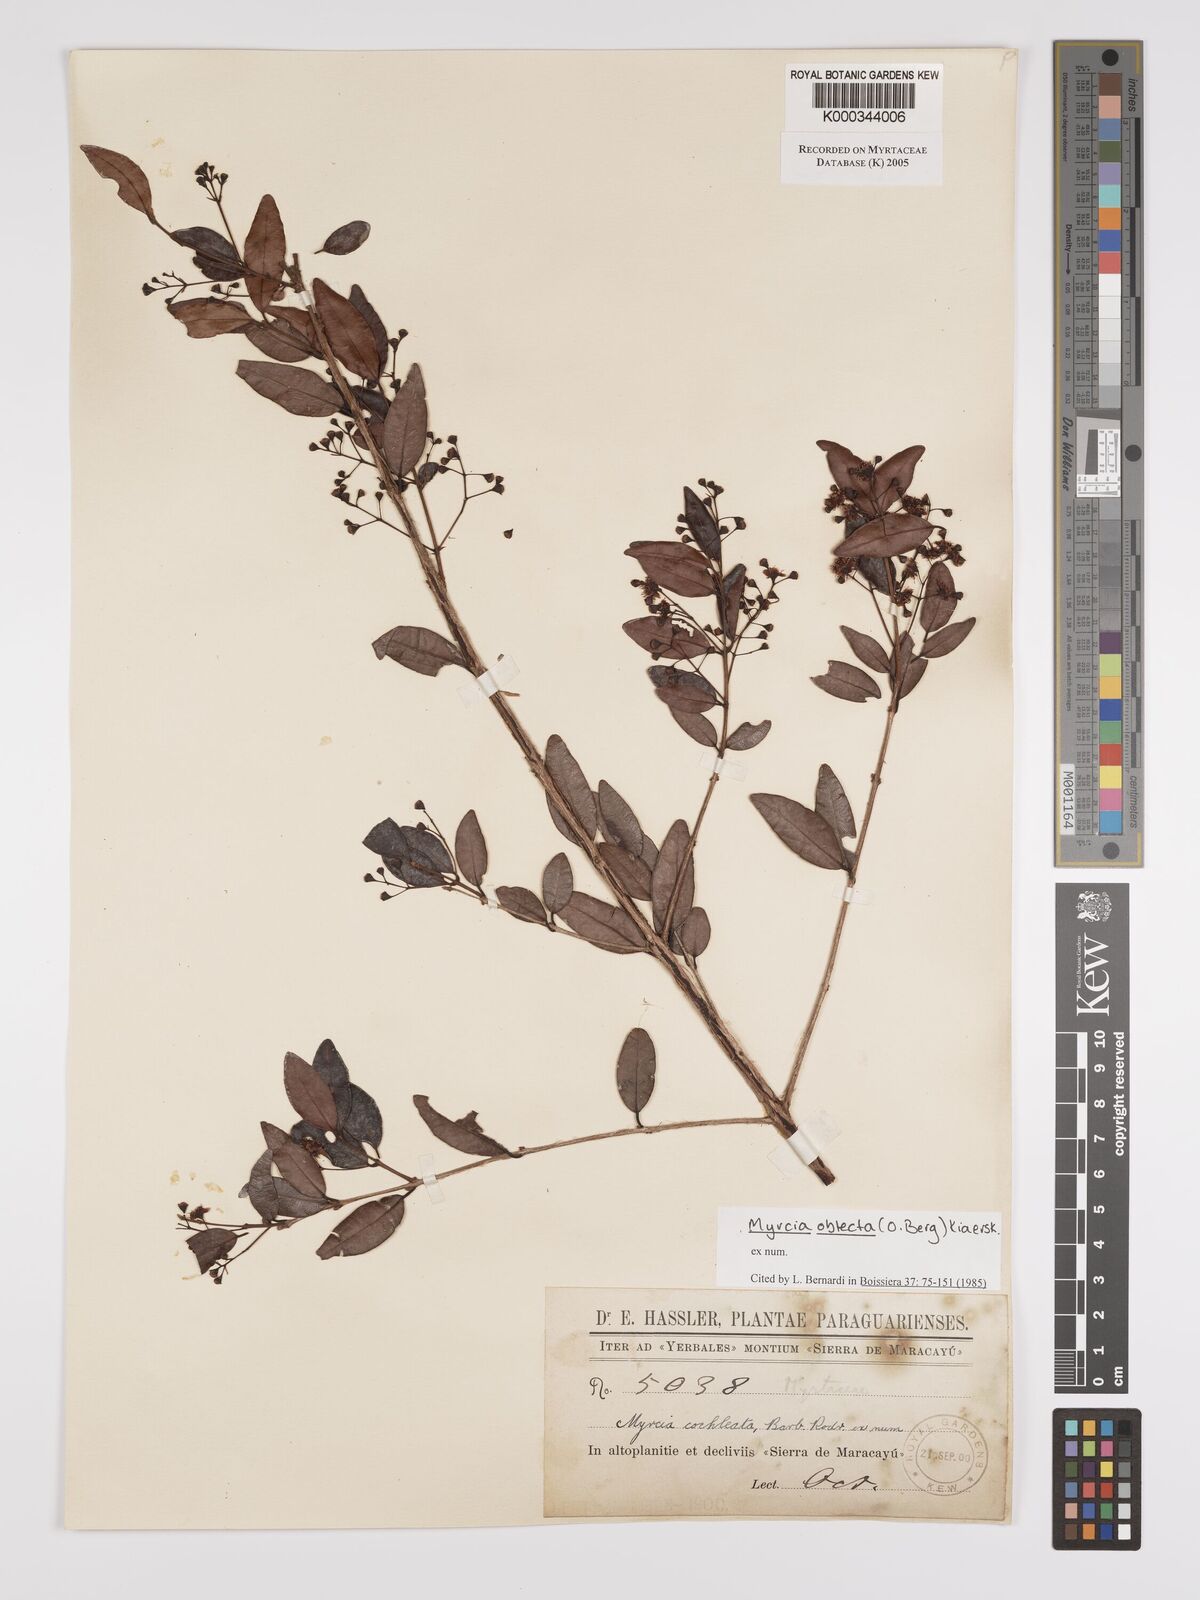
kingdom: Plantae
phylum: Tracheophyta
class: Magnoliopsida
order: Myrtales
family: Myrtaceae
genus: Myrcia
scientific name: Myrcia guianensis
